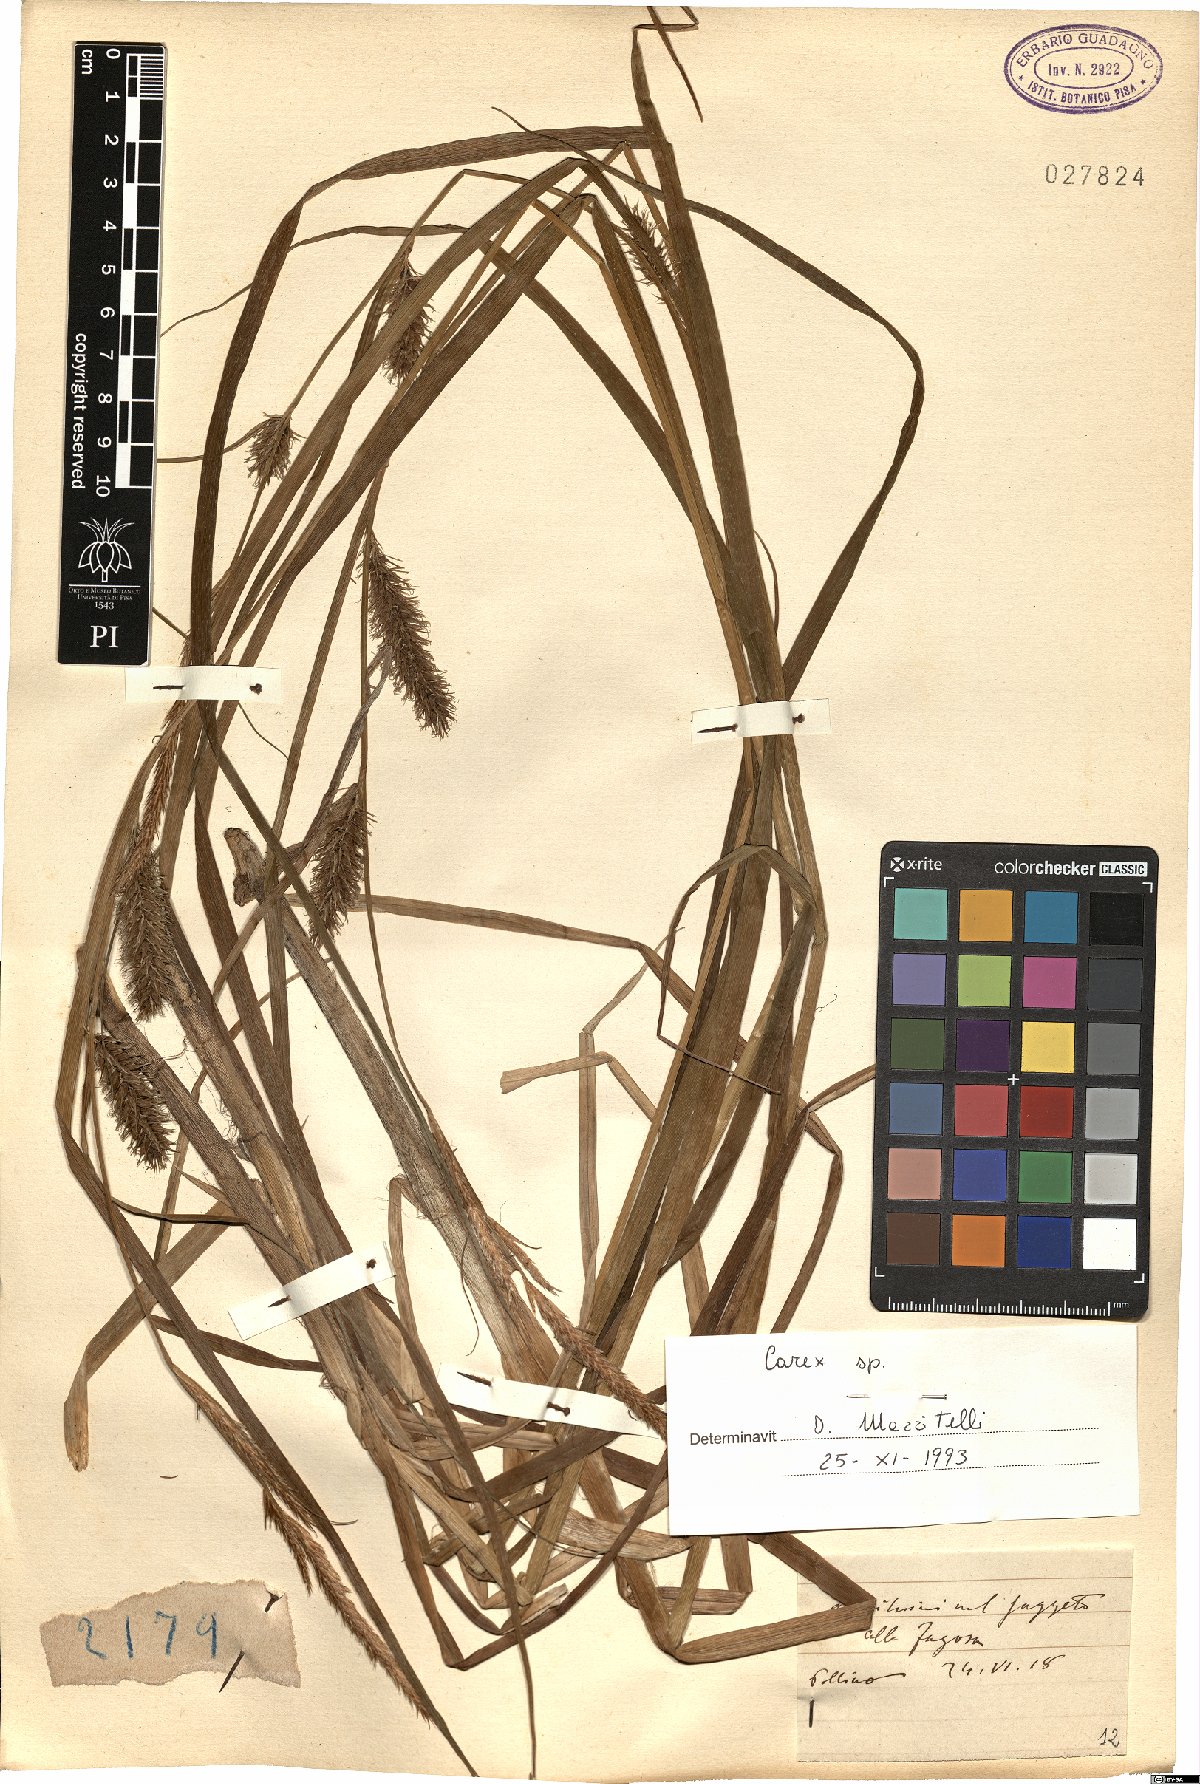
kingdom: Plantae
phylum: Tracheophyta
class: Liliopsida
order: Poales
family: Cyperaceae
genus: Carex
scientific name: Carex
